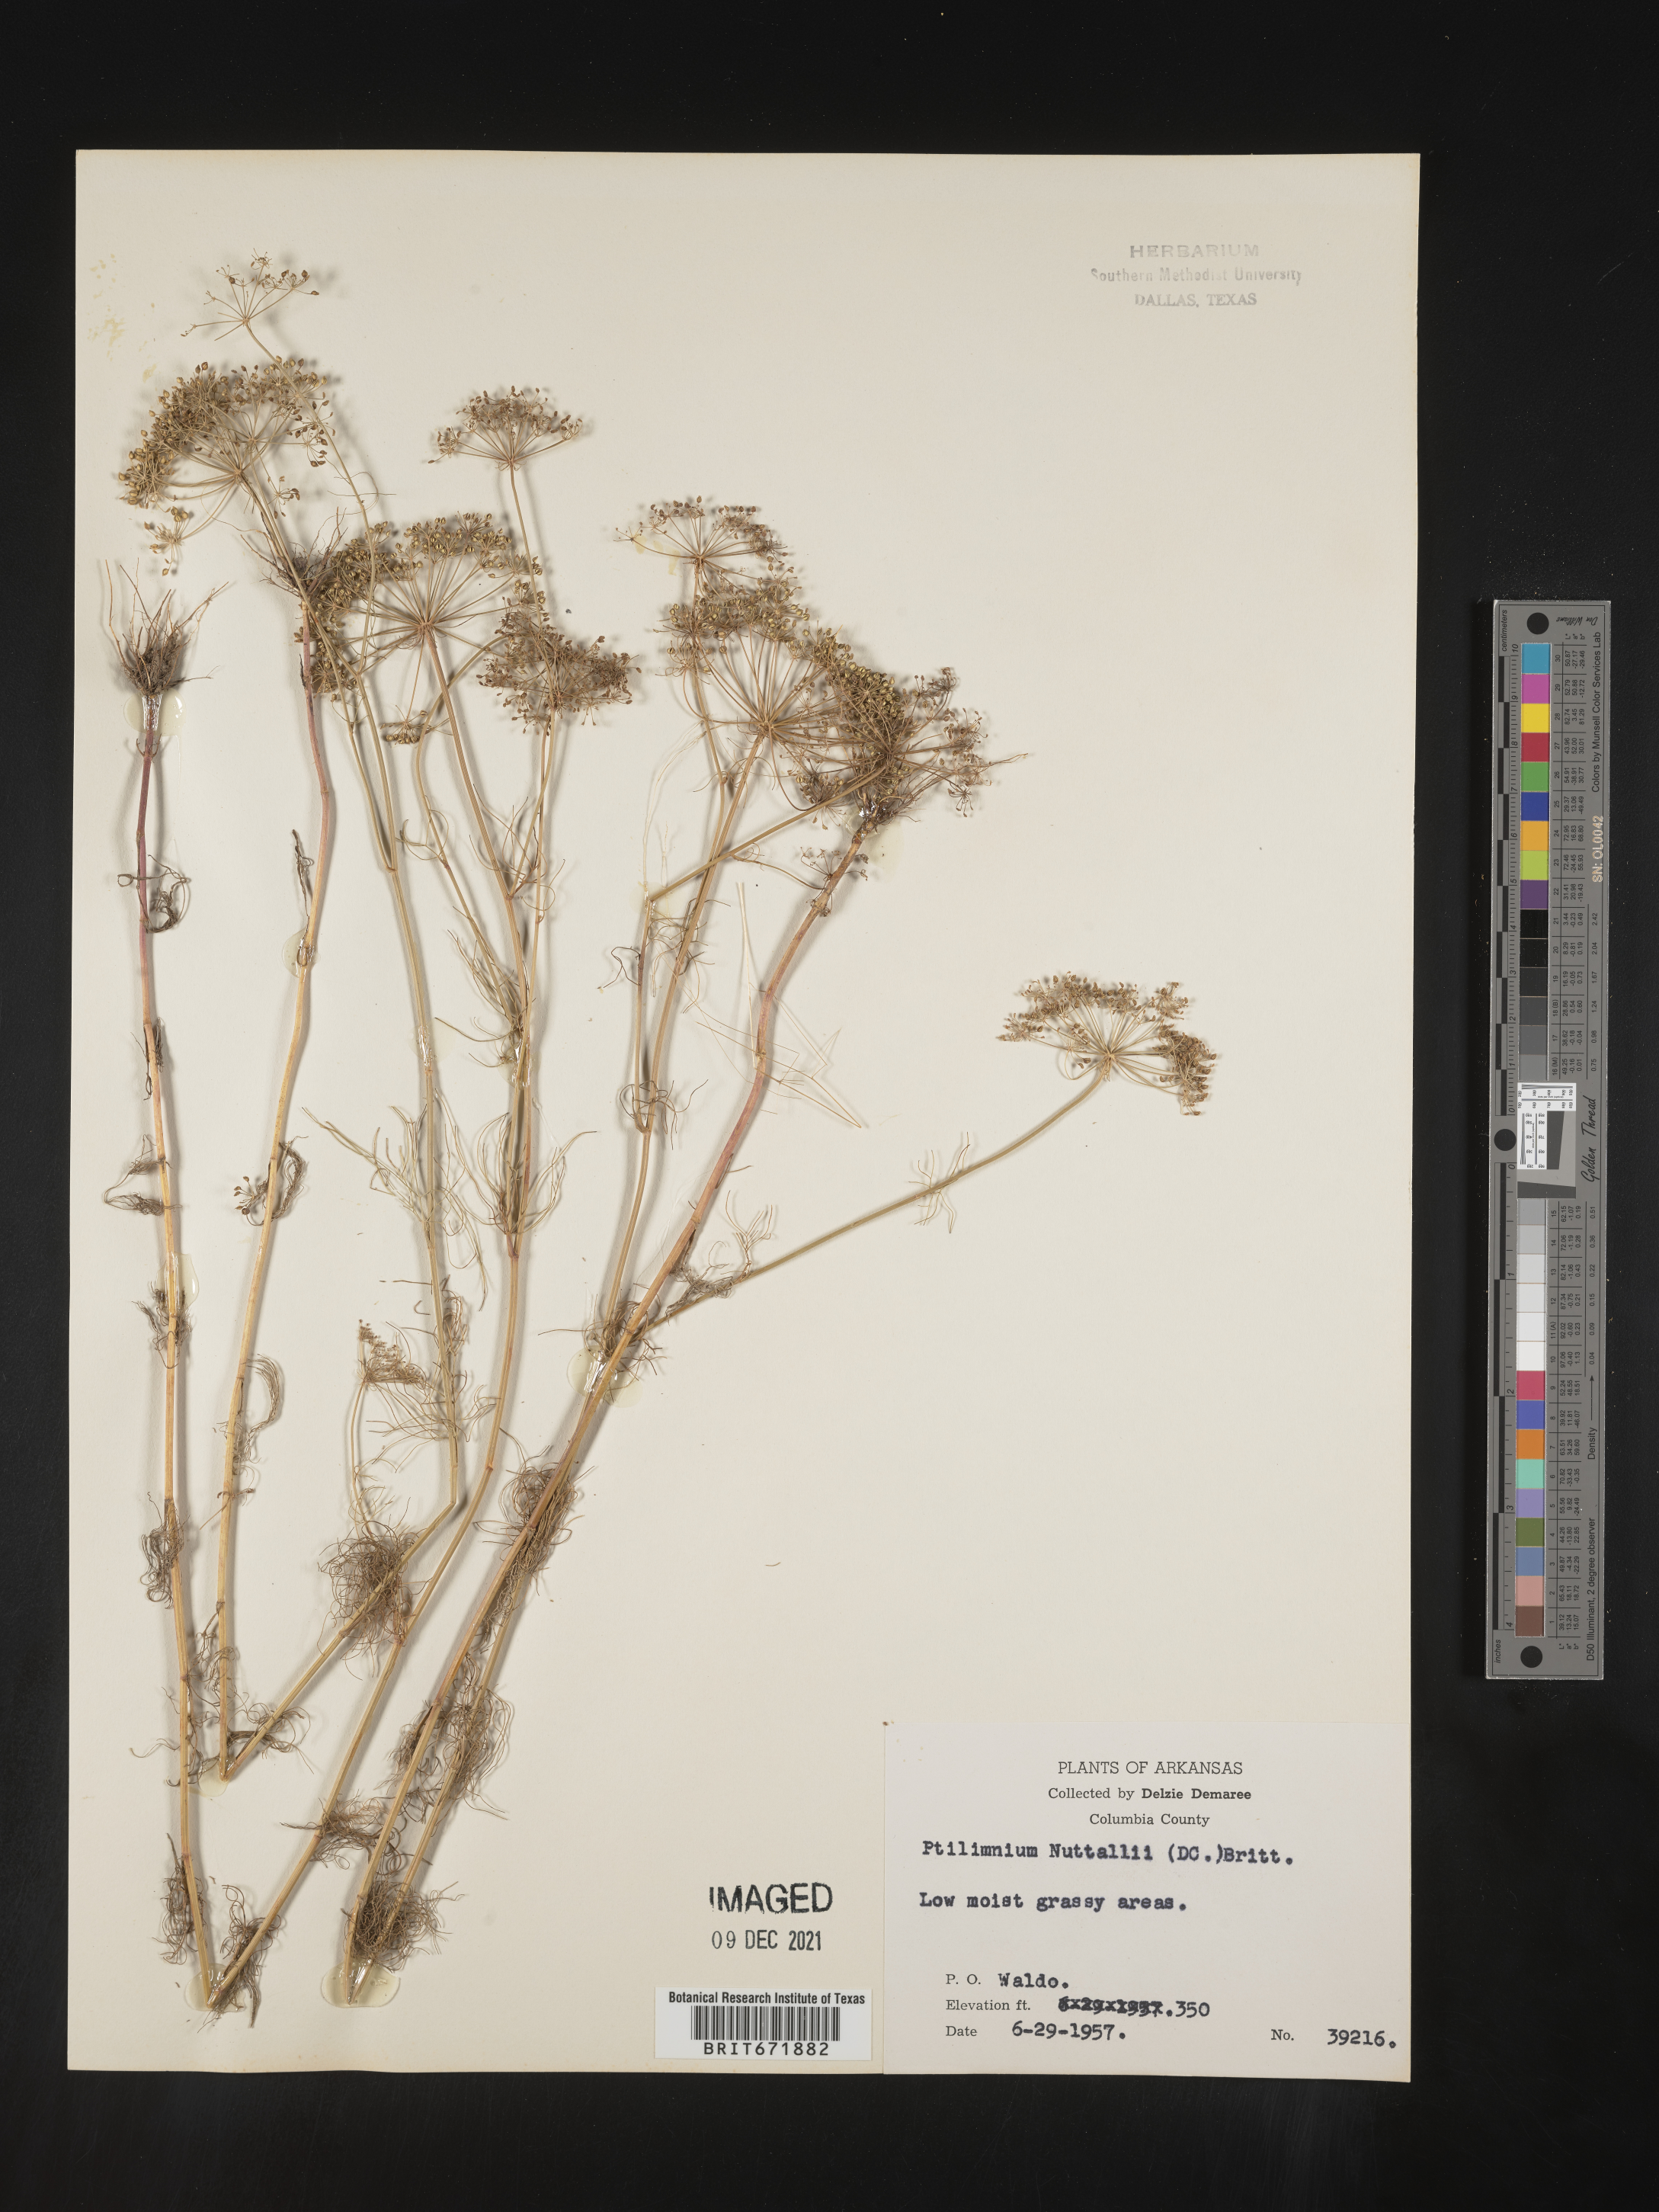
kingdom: Plantae
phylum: Tracheophyta
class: Magnoliopsida
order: Apiales
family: Apiaceae
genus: Ptilimnium
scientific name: Ptilimnium nuttallii
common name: Ozark bishop's-weed
